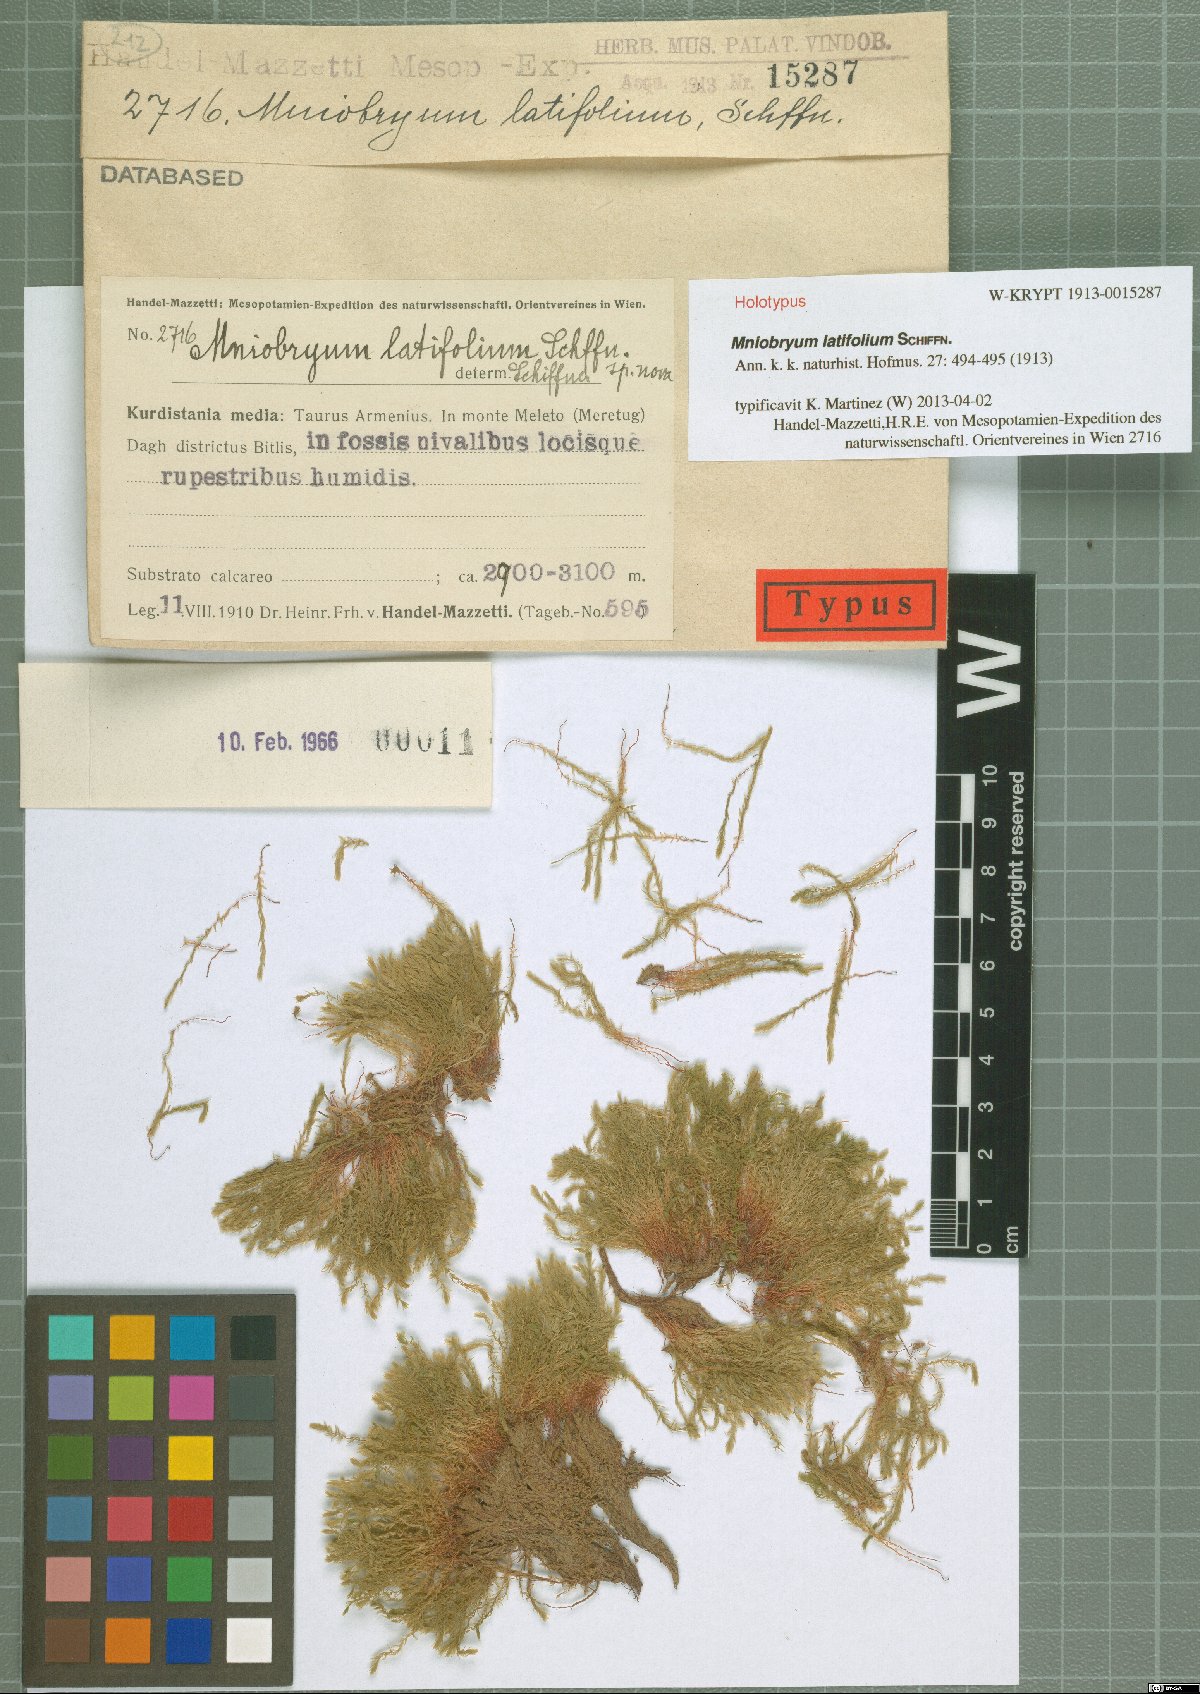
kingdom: Plantae
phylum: Bryophyta
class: Bryopsida
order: Bryales
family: Mniaceae
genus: Pohlia
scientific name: Pohlia wahlenbergii
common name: Wahlenberg's nodding moss
